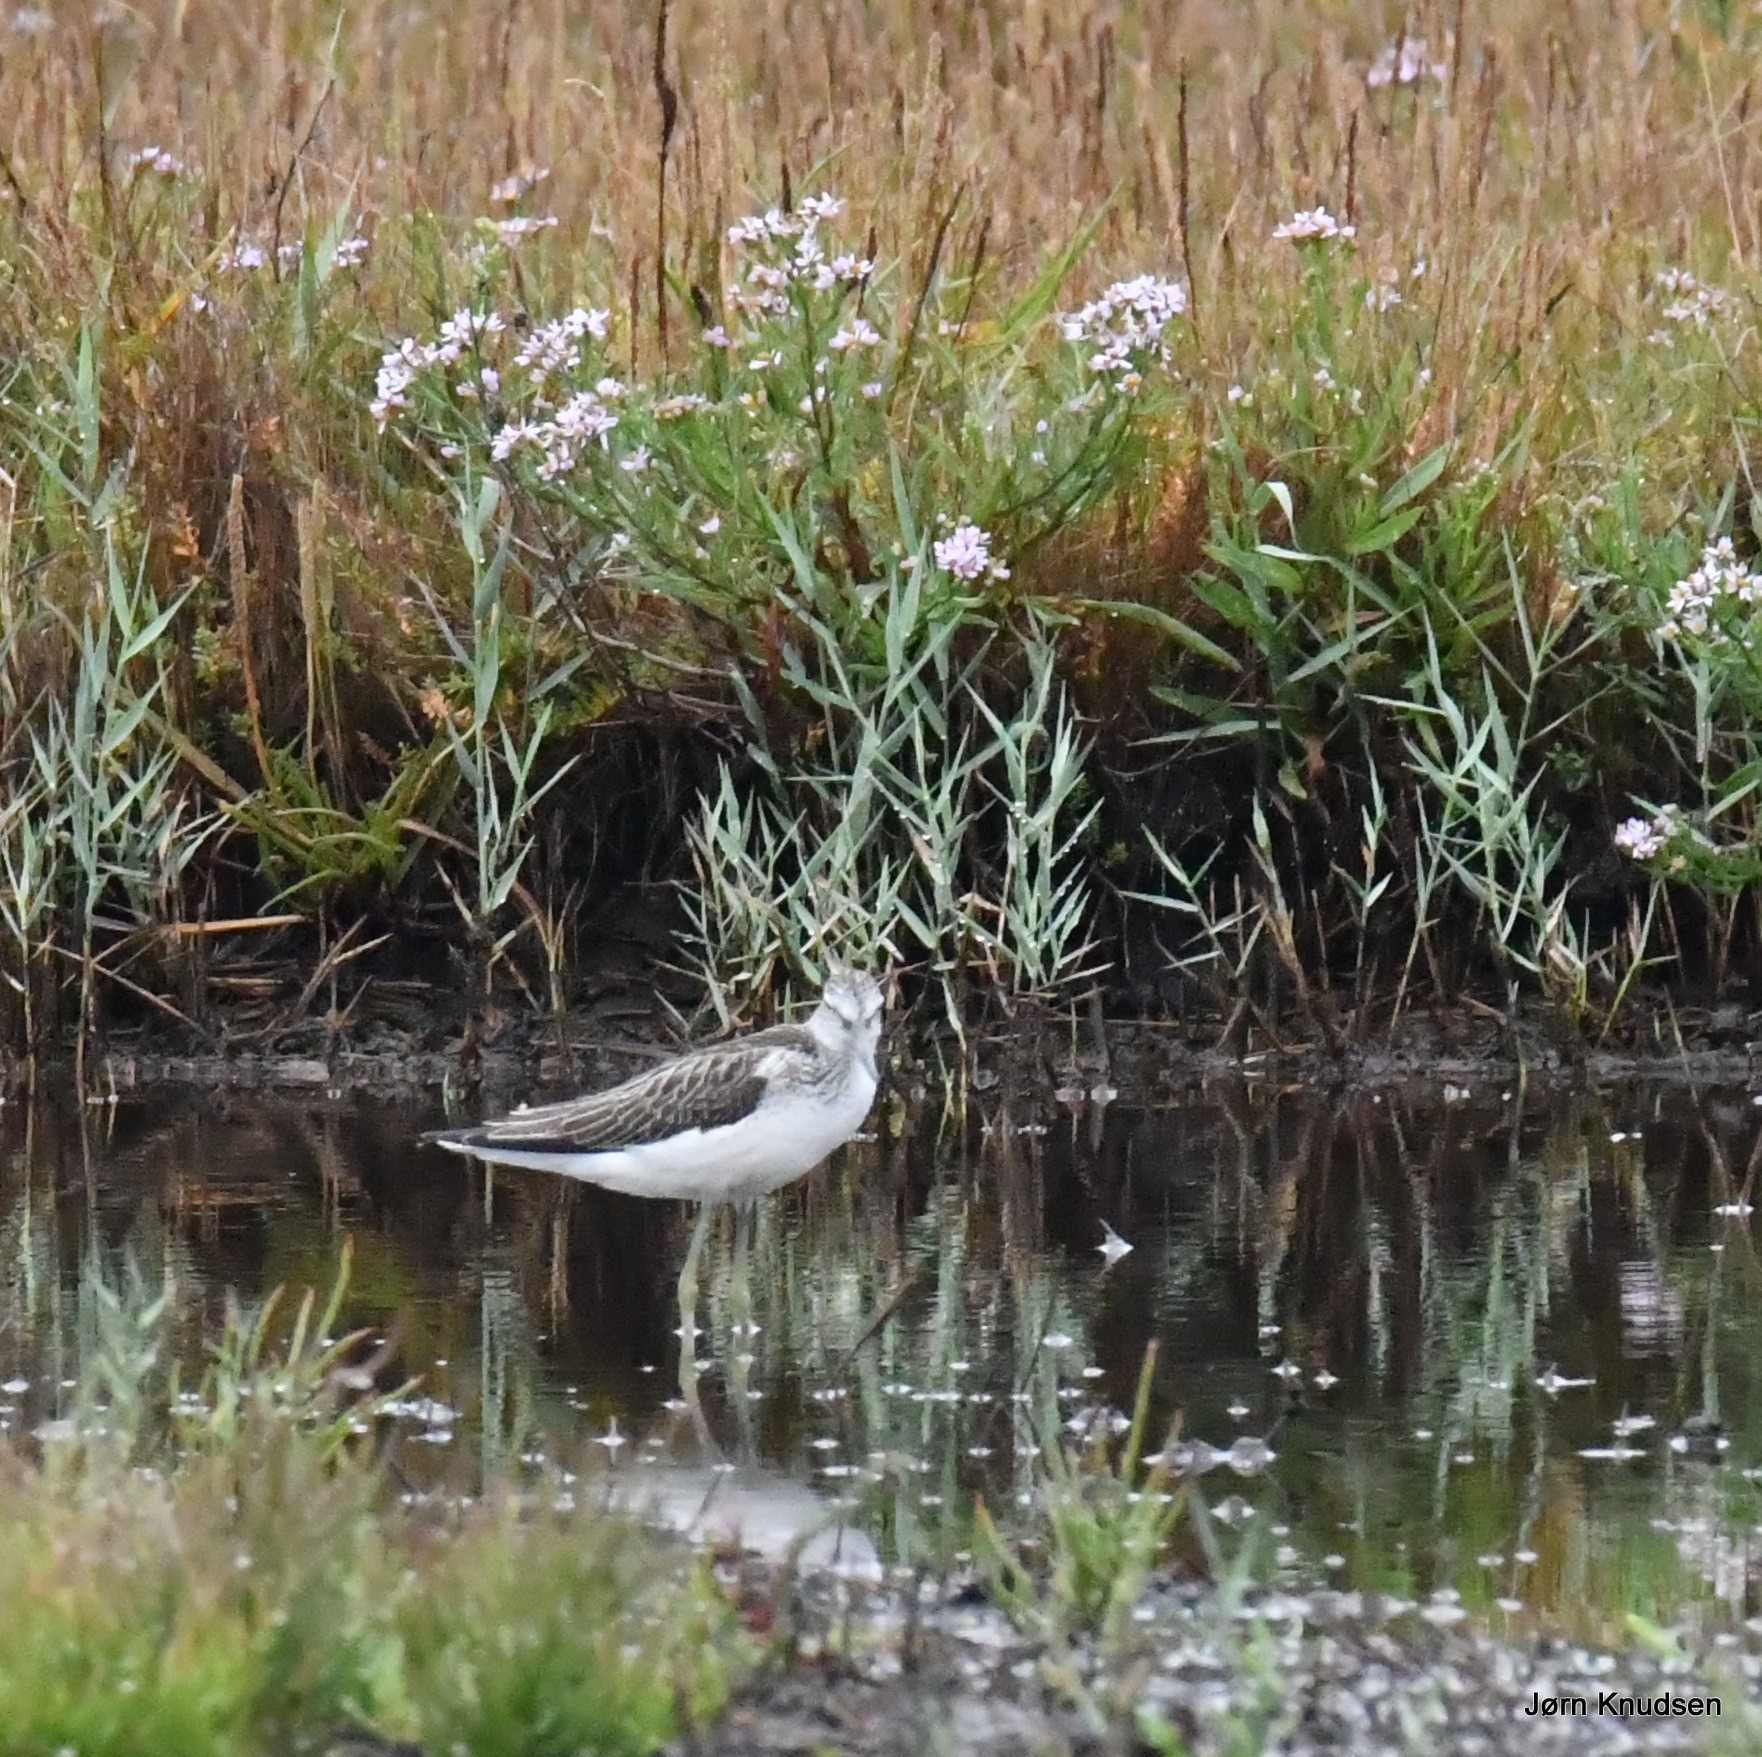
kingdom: Animalia
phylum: Chordata
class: Aves
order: Charadriiformes
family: Scolopacidae
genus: Tringa
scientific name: Tringa nebularia
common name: Hvidklire
